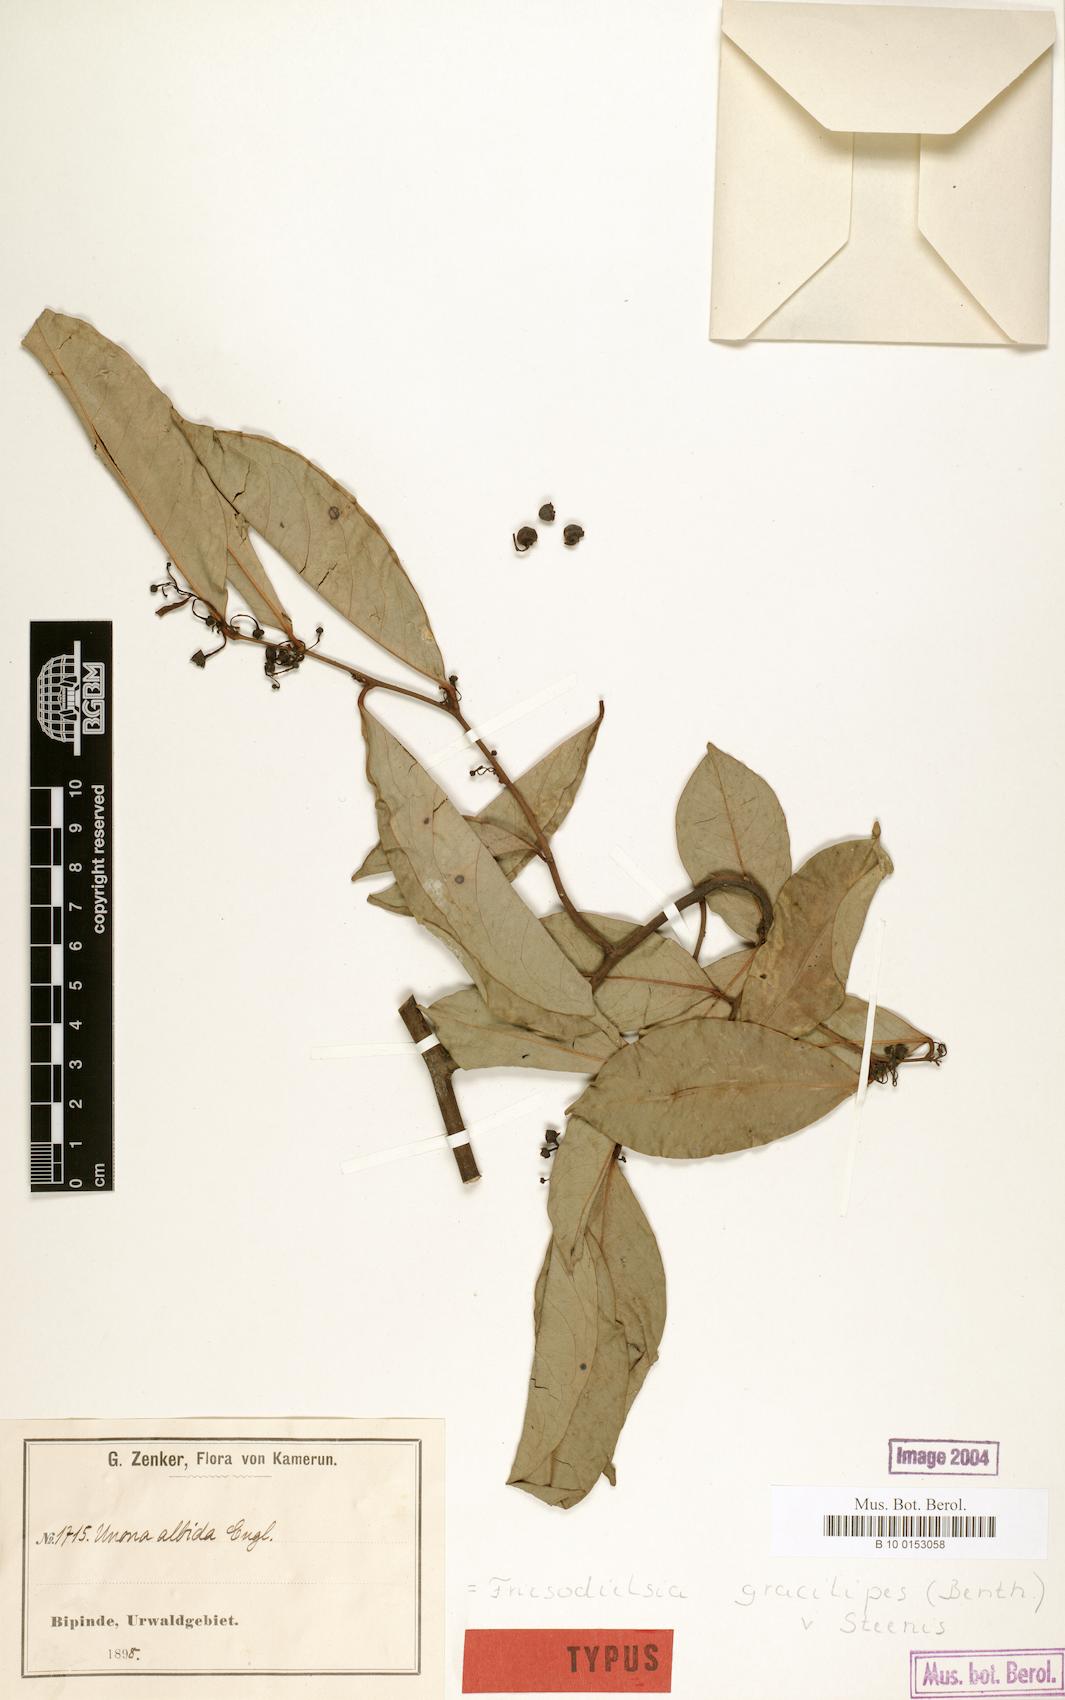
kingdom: Plantae
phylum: Tracheophyta
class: Magnoliopsida
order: Magnoliales
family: Annonaceae
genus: Friesodielsia
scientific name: Friesodielsia gracilipes
